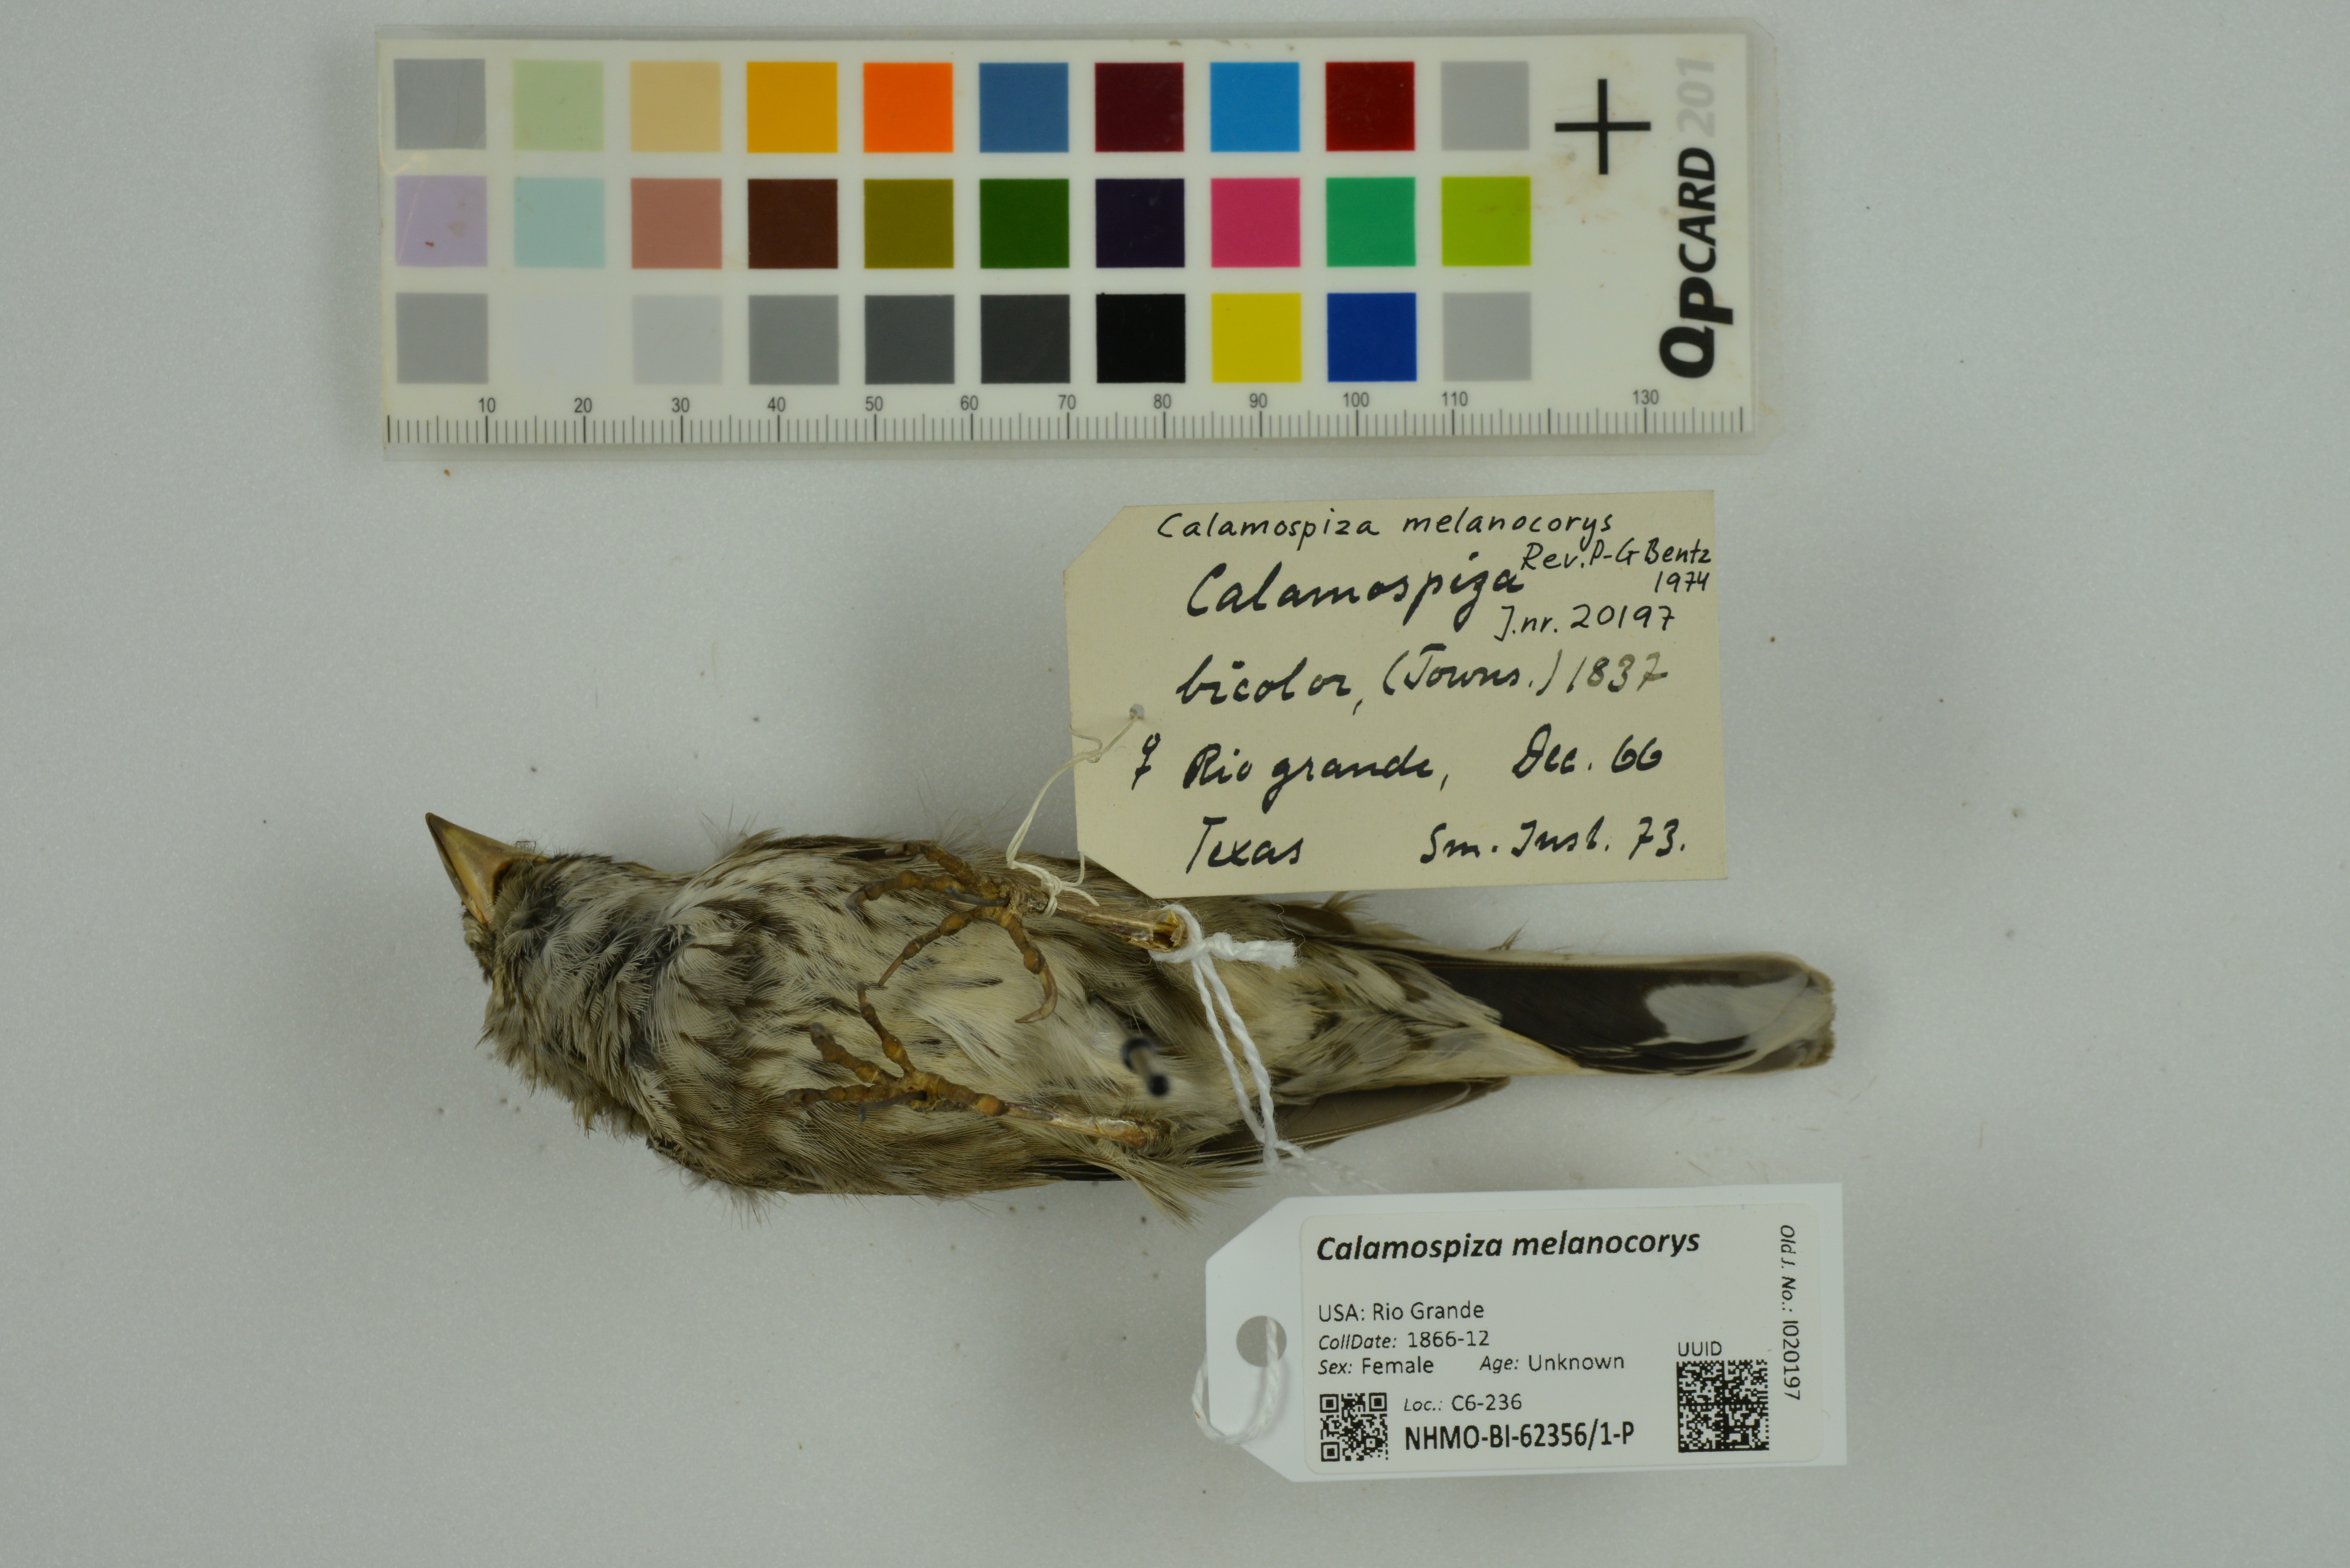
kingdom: Animalia
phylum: Chordata
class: Aves
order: Passeriformes
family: Passerellidae
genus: Calamospiza
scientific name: Calamospiza melanocorys
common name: Lark bunting
